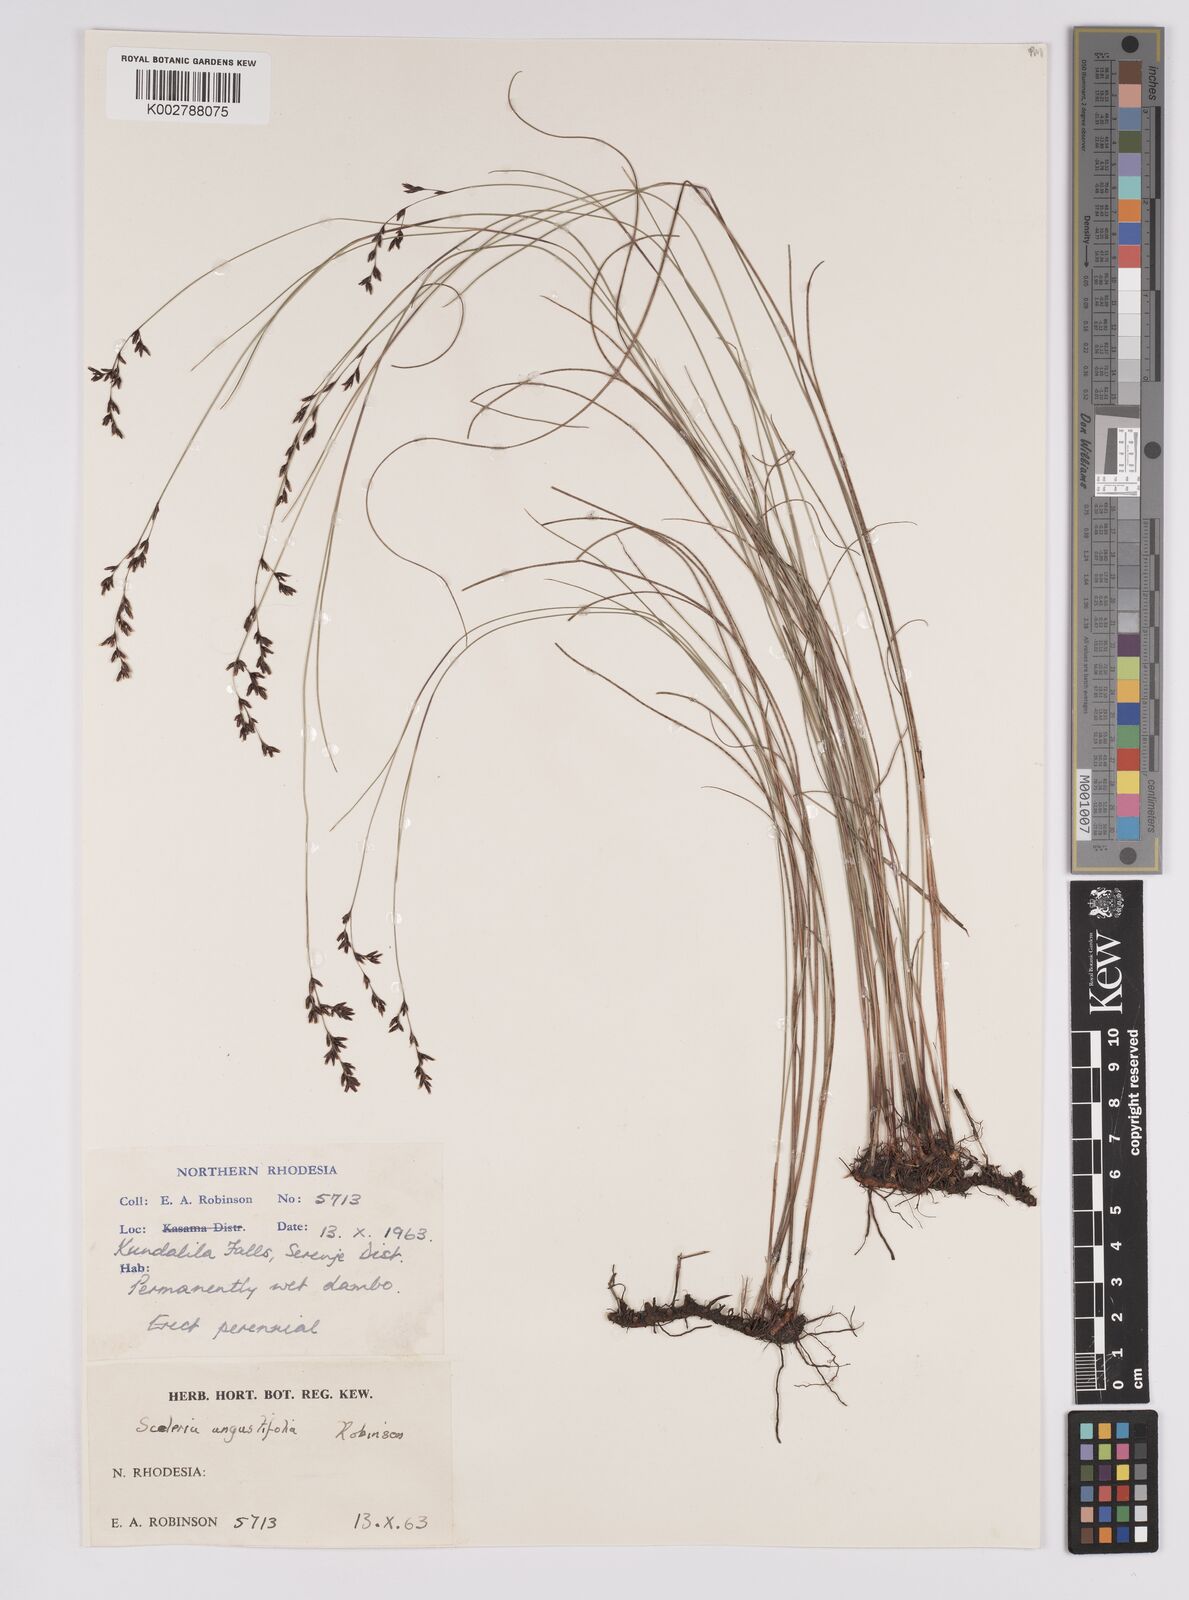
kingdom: Plantae
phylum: Tracheophyta
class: Liliopsida
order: Poales
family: Cyperaceae
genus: Scleria
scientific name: Scleria angustifolia
